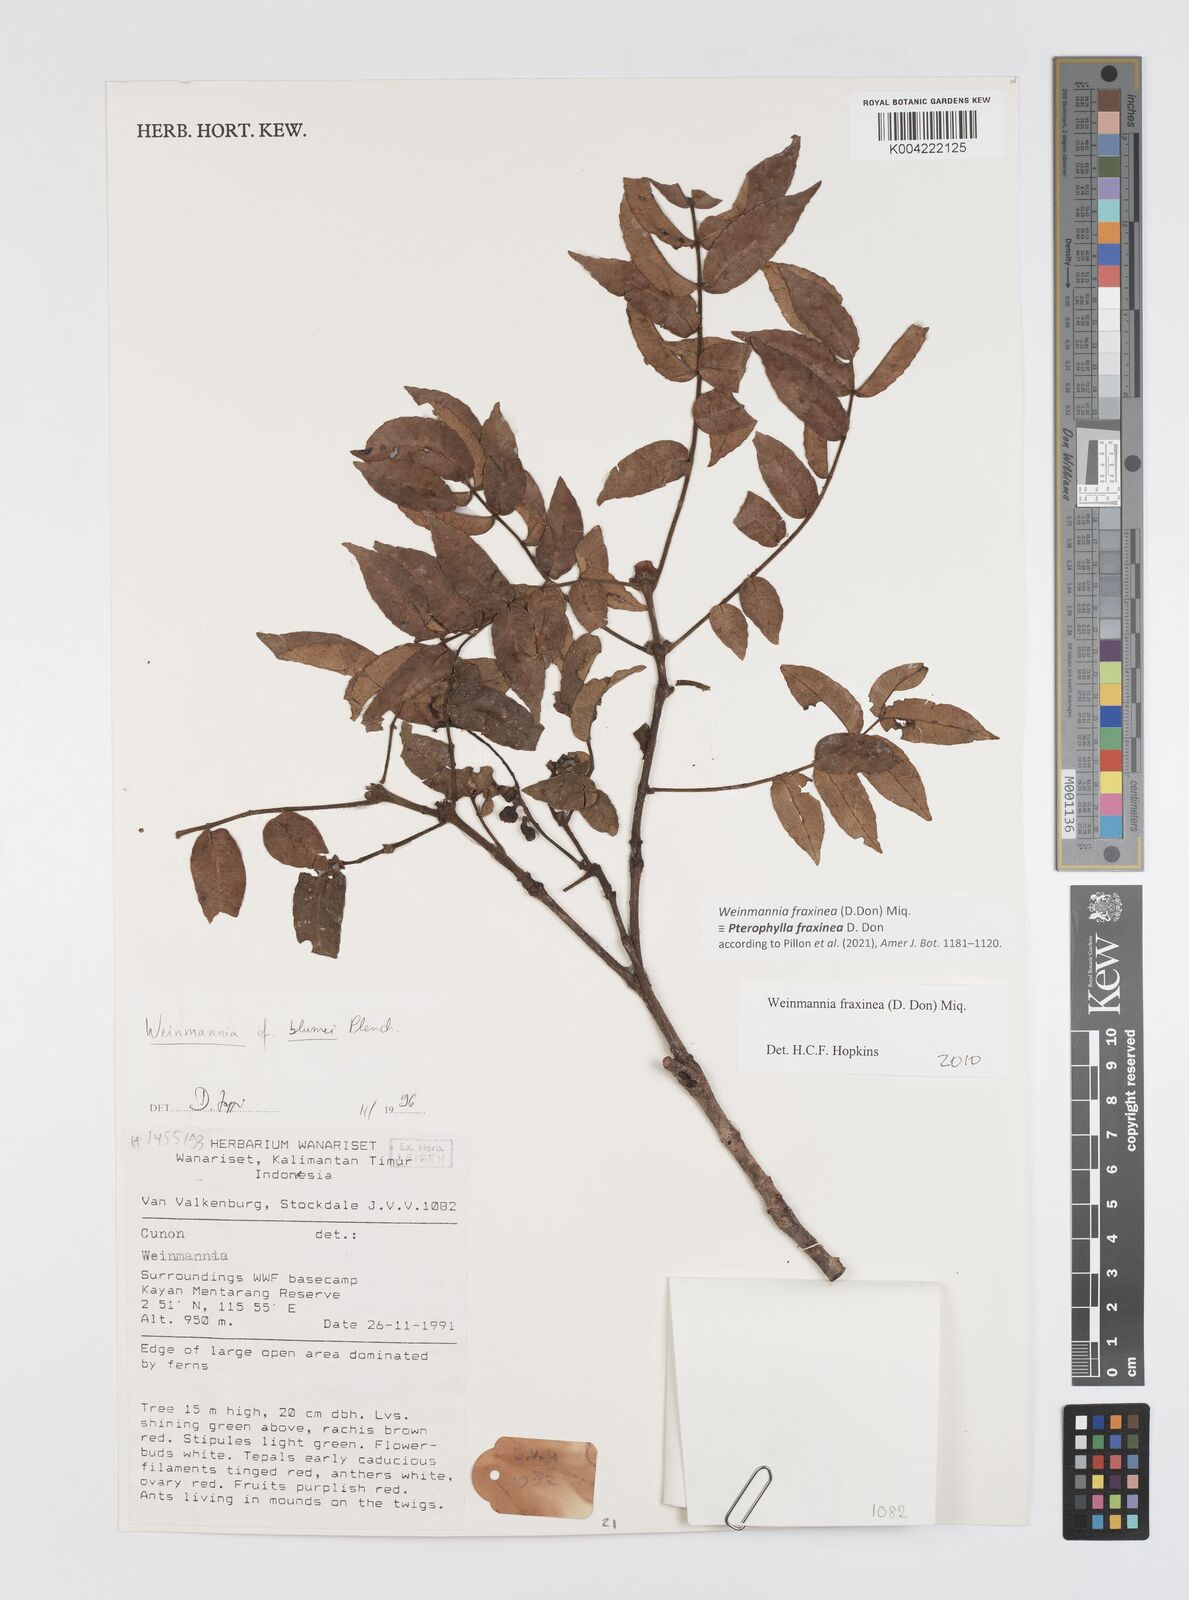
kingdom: Plantae
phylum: Tracheophyta
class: Magnoliopsida
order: Oxalidales
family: Cunoniaceae
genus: Pterophylla
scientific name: Pterophylla fraxinea
